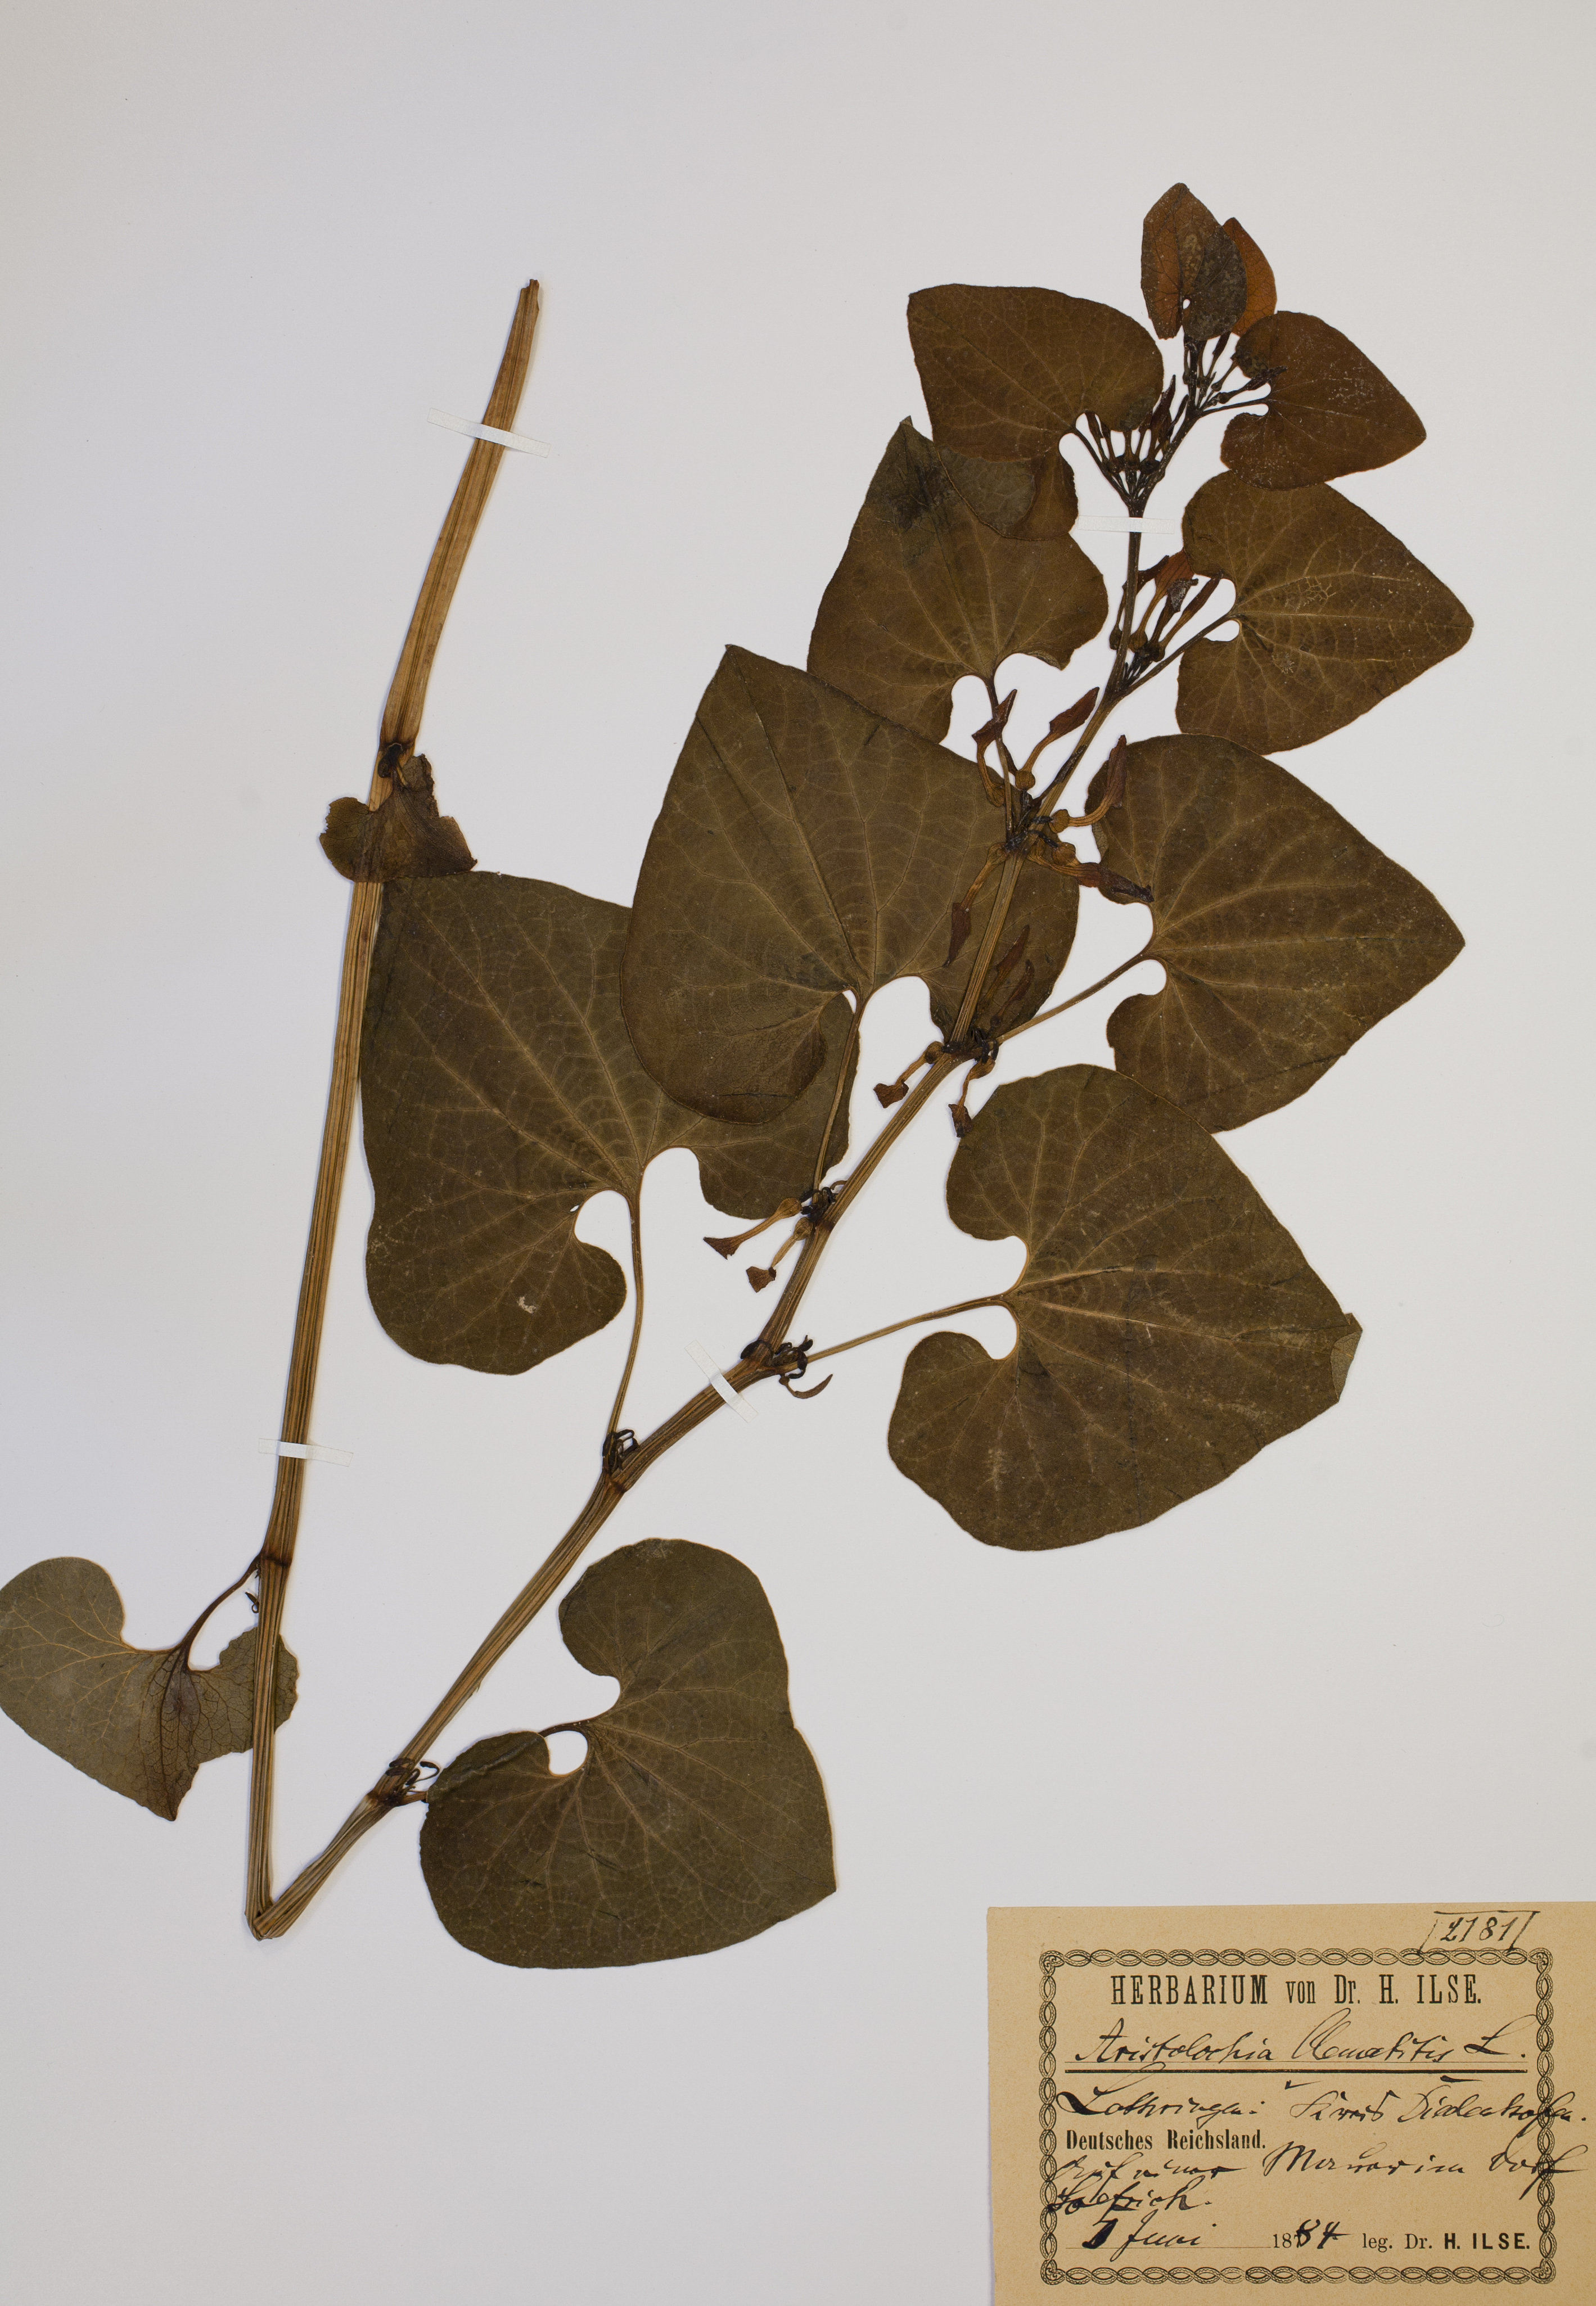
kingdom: Plantae
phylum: Tracheophyta
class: Magnoliopsida
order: Piperales
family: Aristolochiaceae
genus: Aristolochia
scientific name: Aristolochia clematitis
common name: Birthwort
